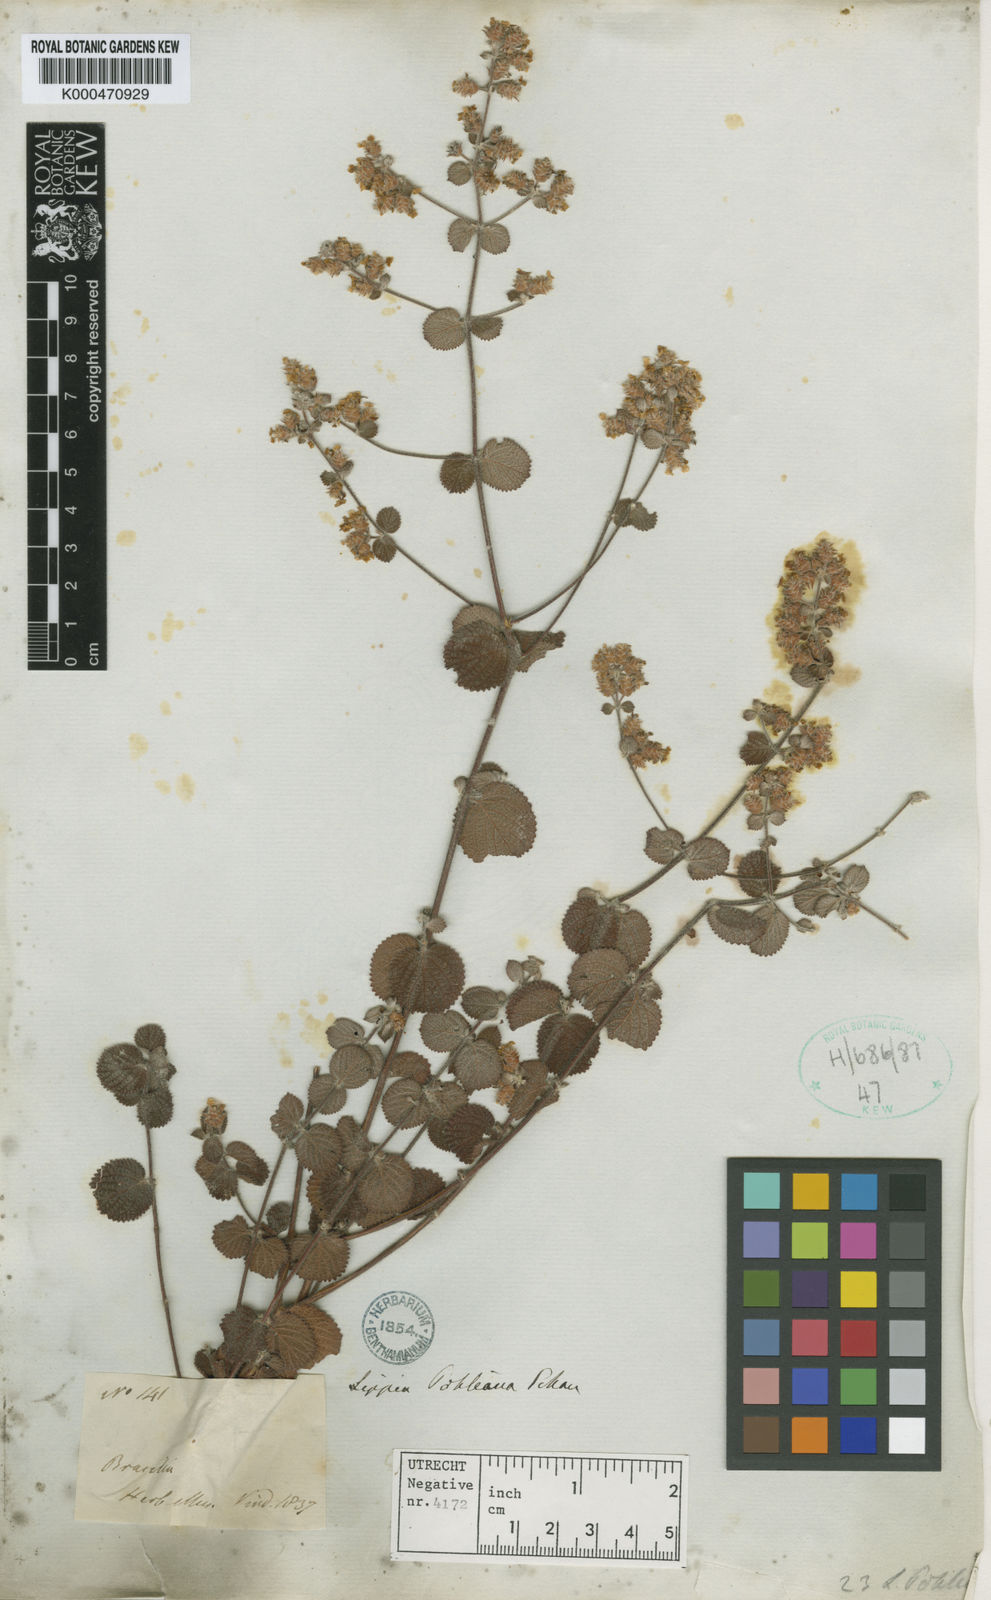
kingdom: Plantae
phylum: Tracheophyta
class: Magnoliopsida
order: Lamiales
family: Verbenaceae
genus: Lippia
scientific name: Lippia stachyoides
